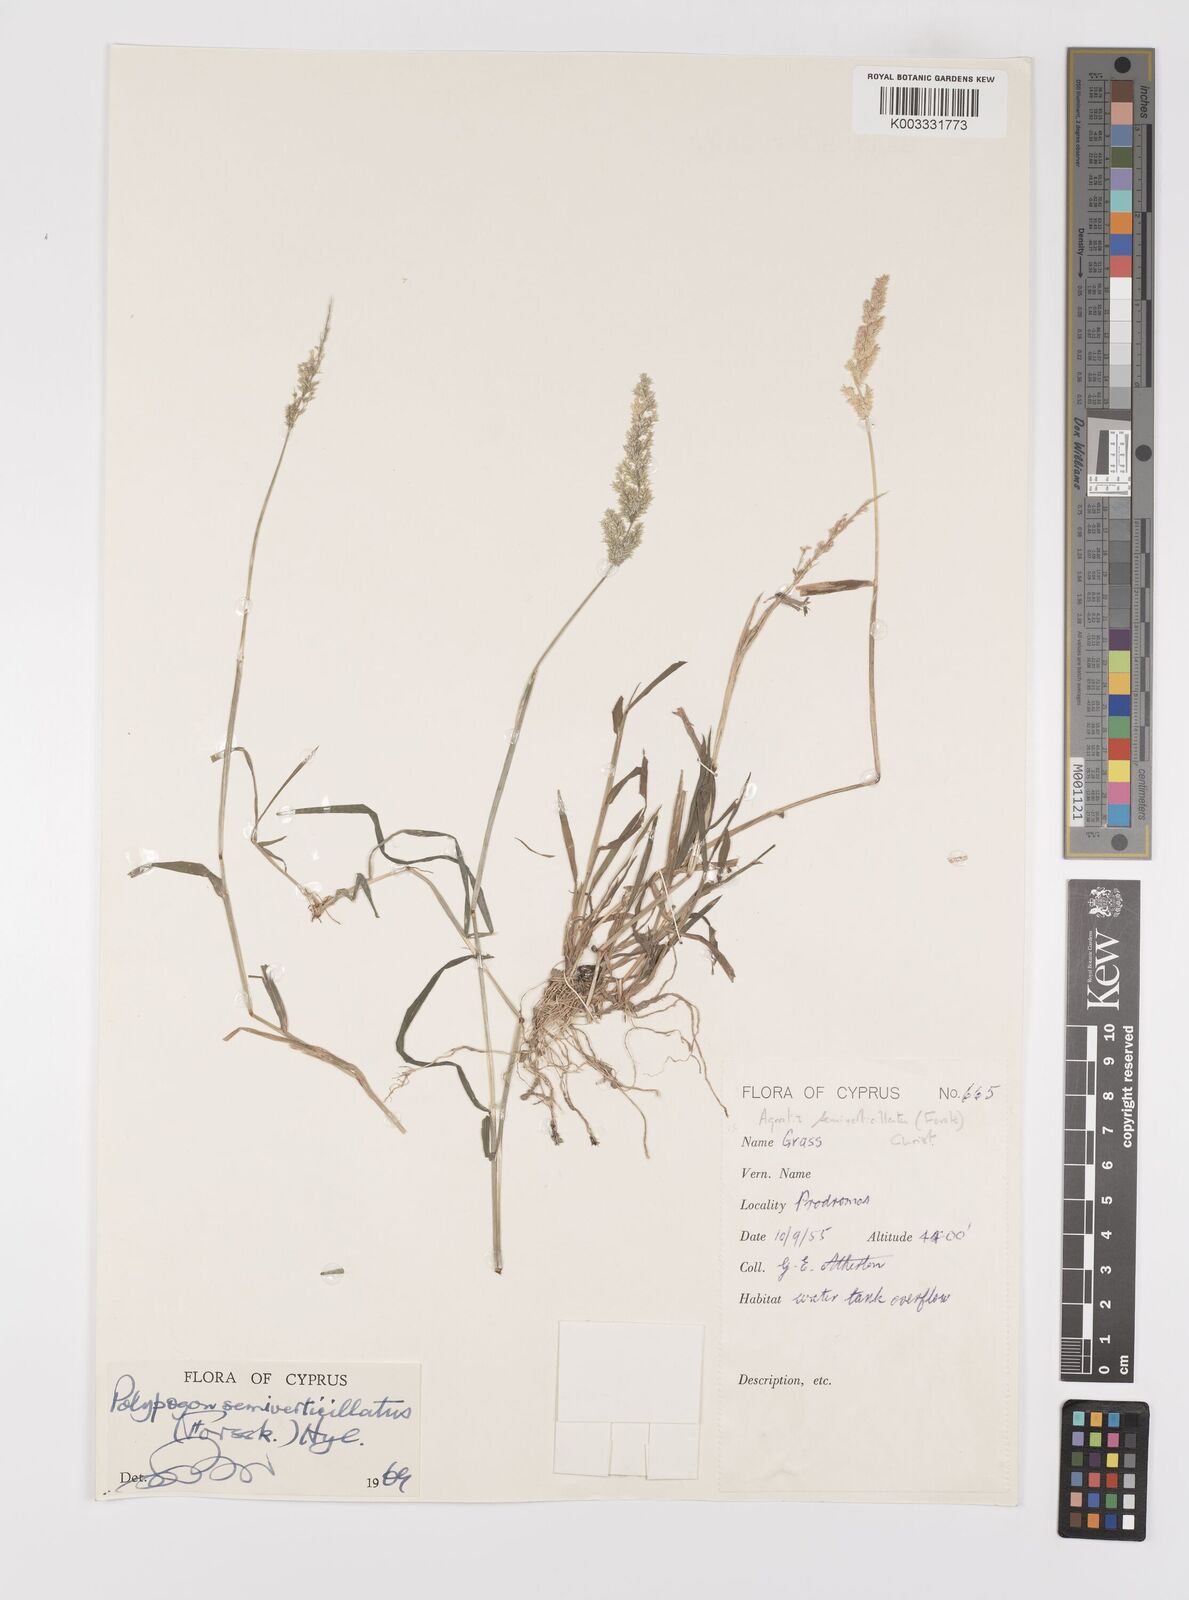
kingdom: Plantae
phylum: Tracheophyta
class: Liliopsida
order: Poales
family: Poaceae
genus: Polypogon
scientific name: Polypogon viridis
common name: Water bent
